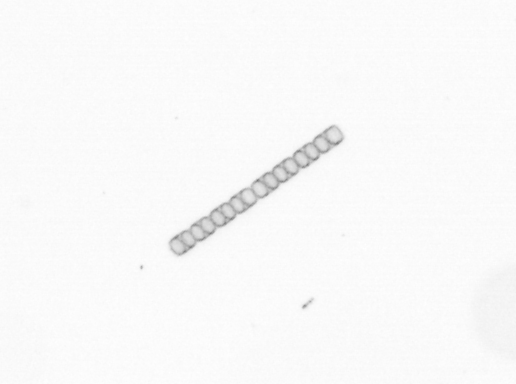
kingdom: Chromista
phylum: Ochrophyta
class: Bacillariophyceae
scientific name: Bacillariophyceae
